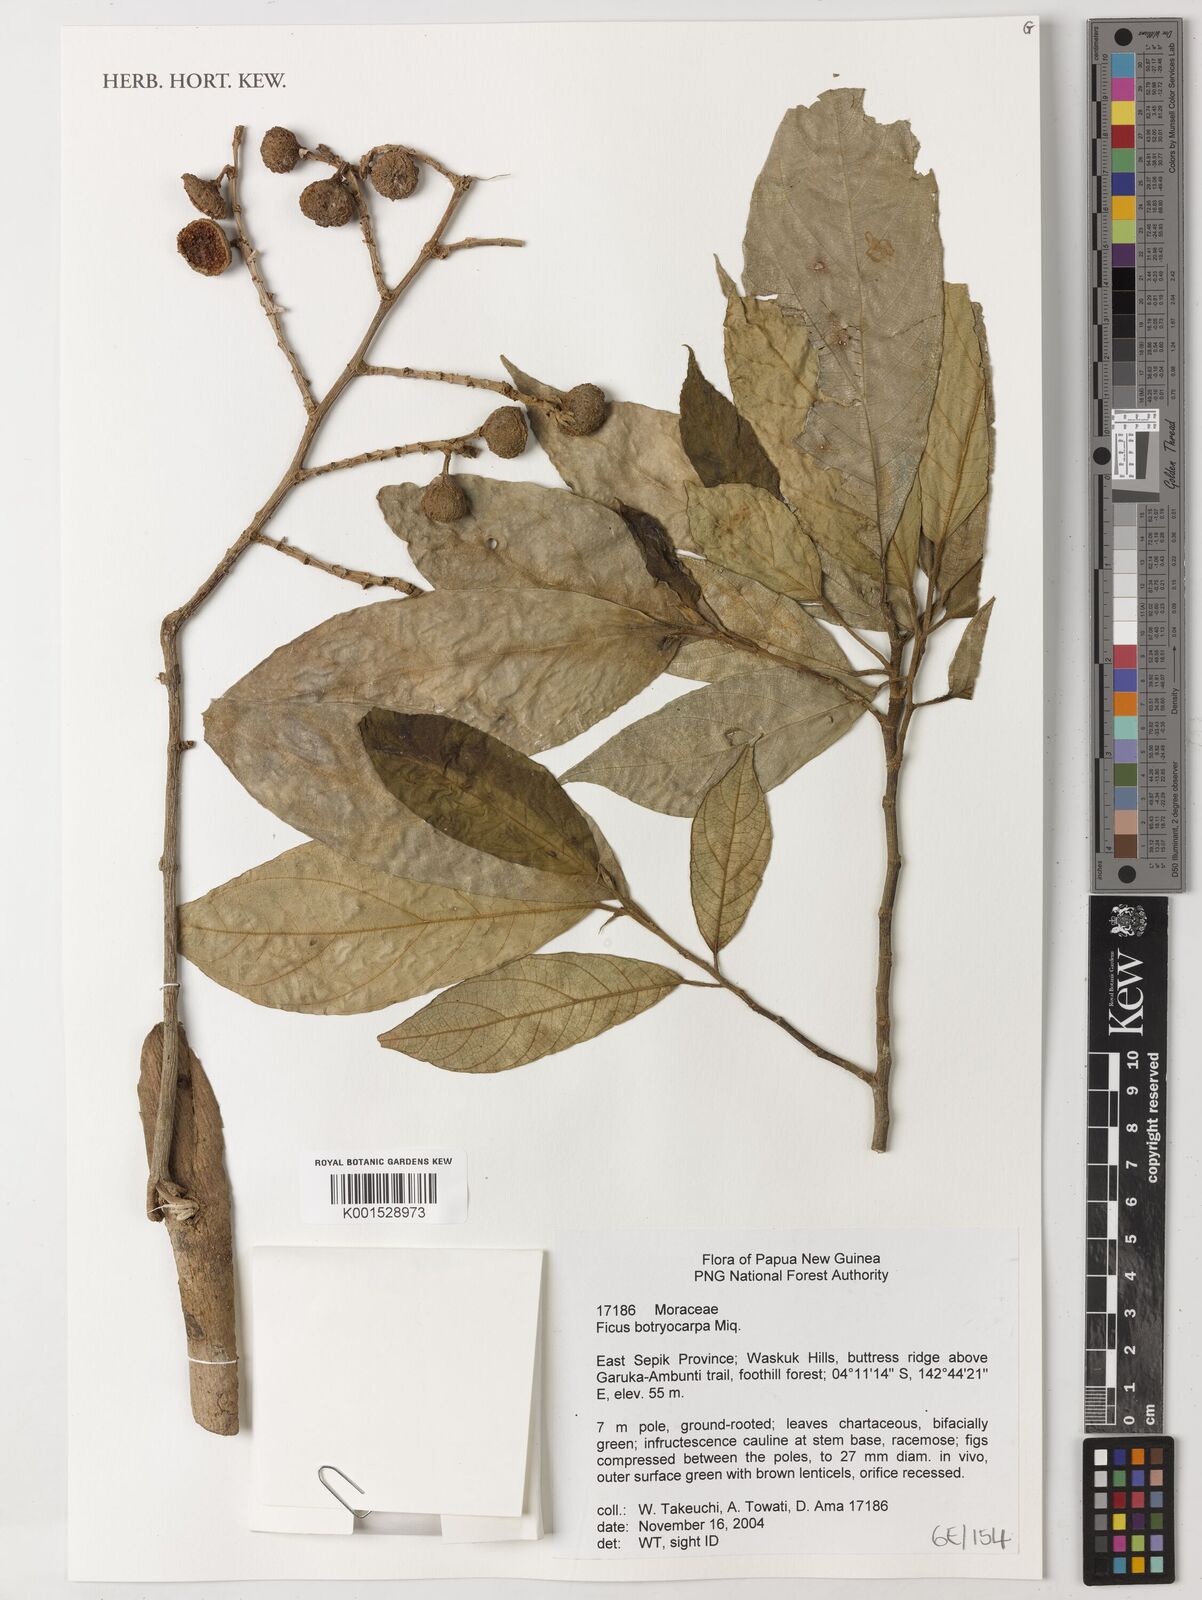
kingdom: Plantae
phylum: Tracheophyta
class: Magnoliopsida
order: Rosales
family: Moraceae
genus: Ficus
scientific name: Ficus botryocarpa
